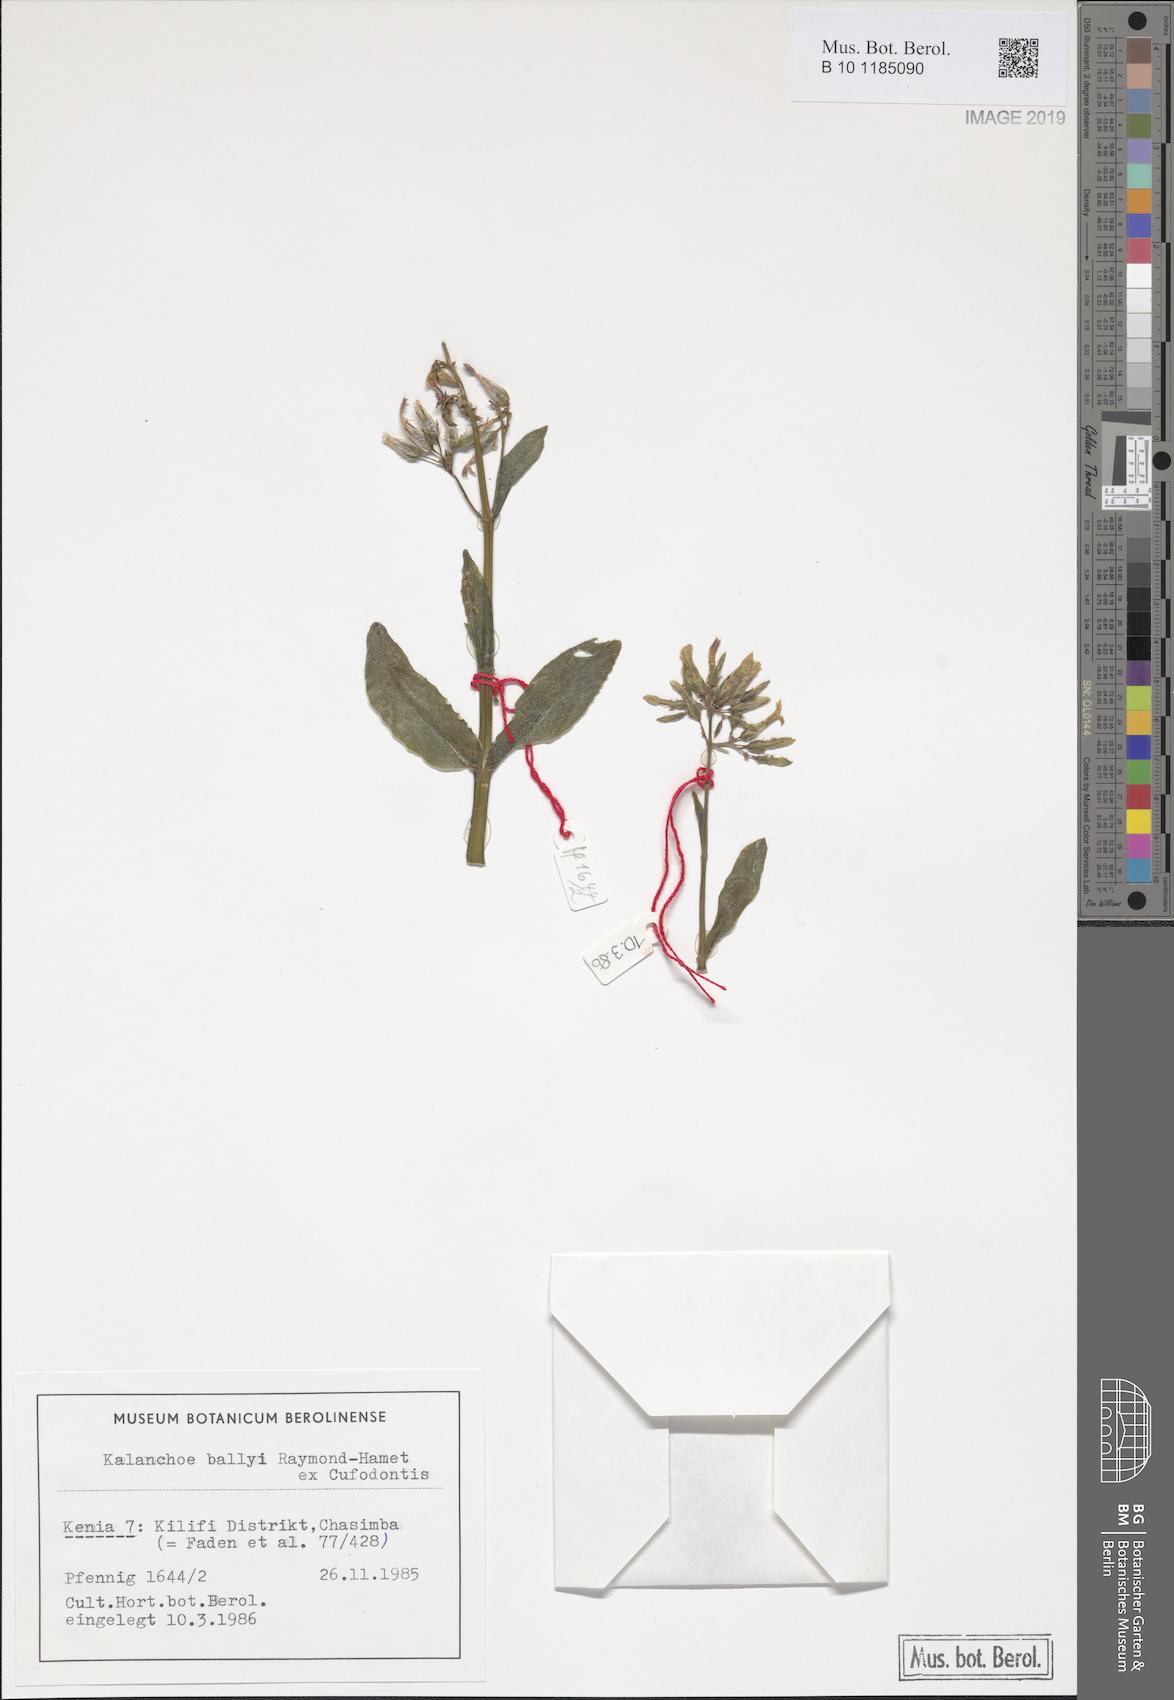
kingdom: Plantae
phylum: Tracheophyta
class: Magnoliopsida
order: Saxifragales
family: Crassulaceae
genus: Kalanchoe
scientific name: Kalanchoe ballyi
